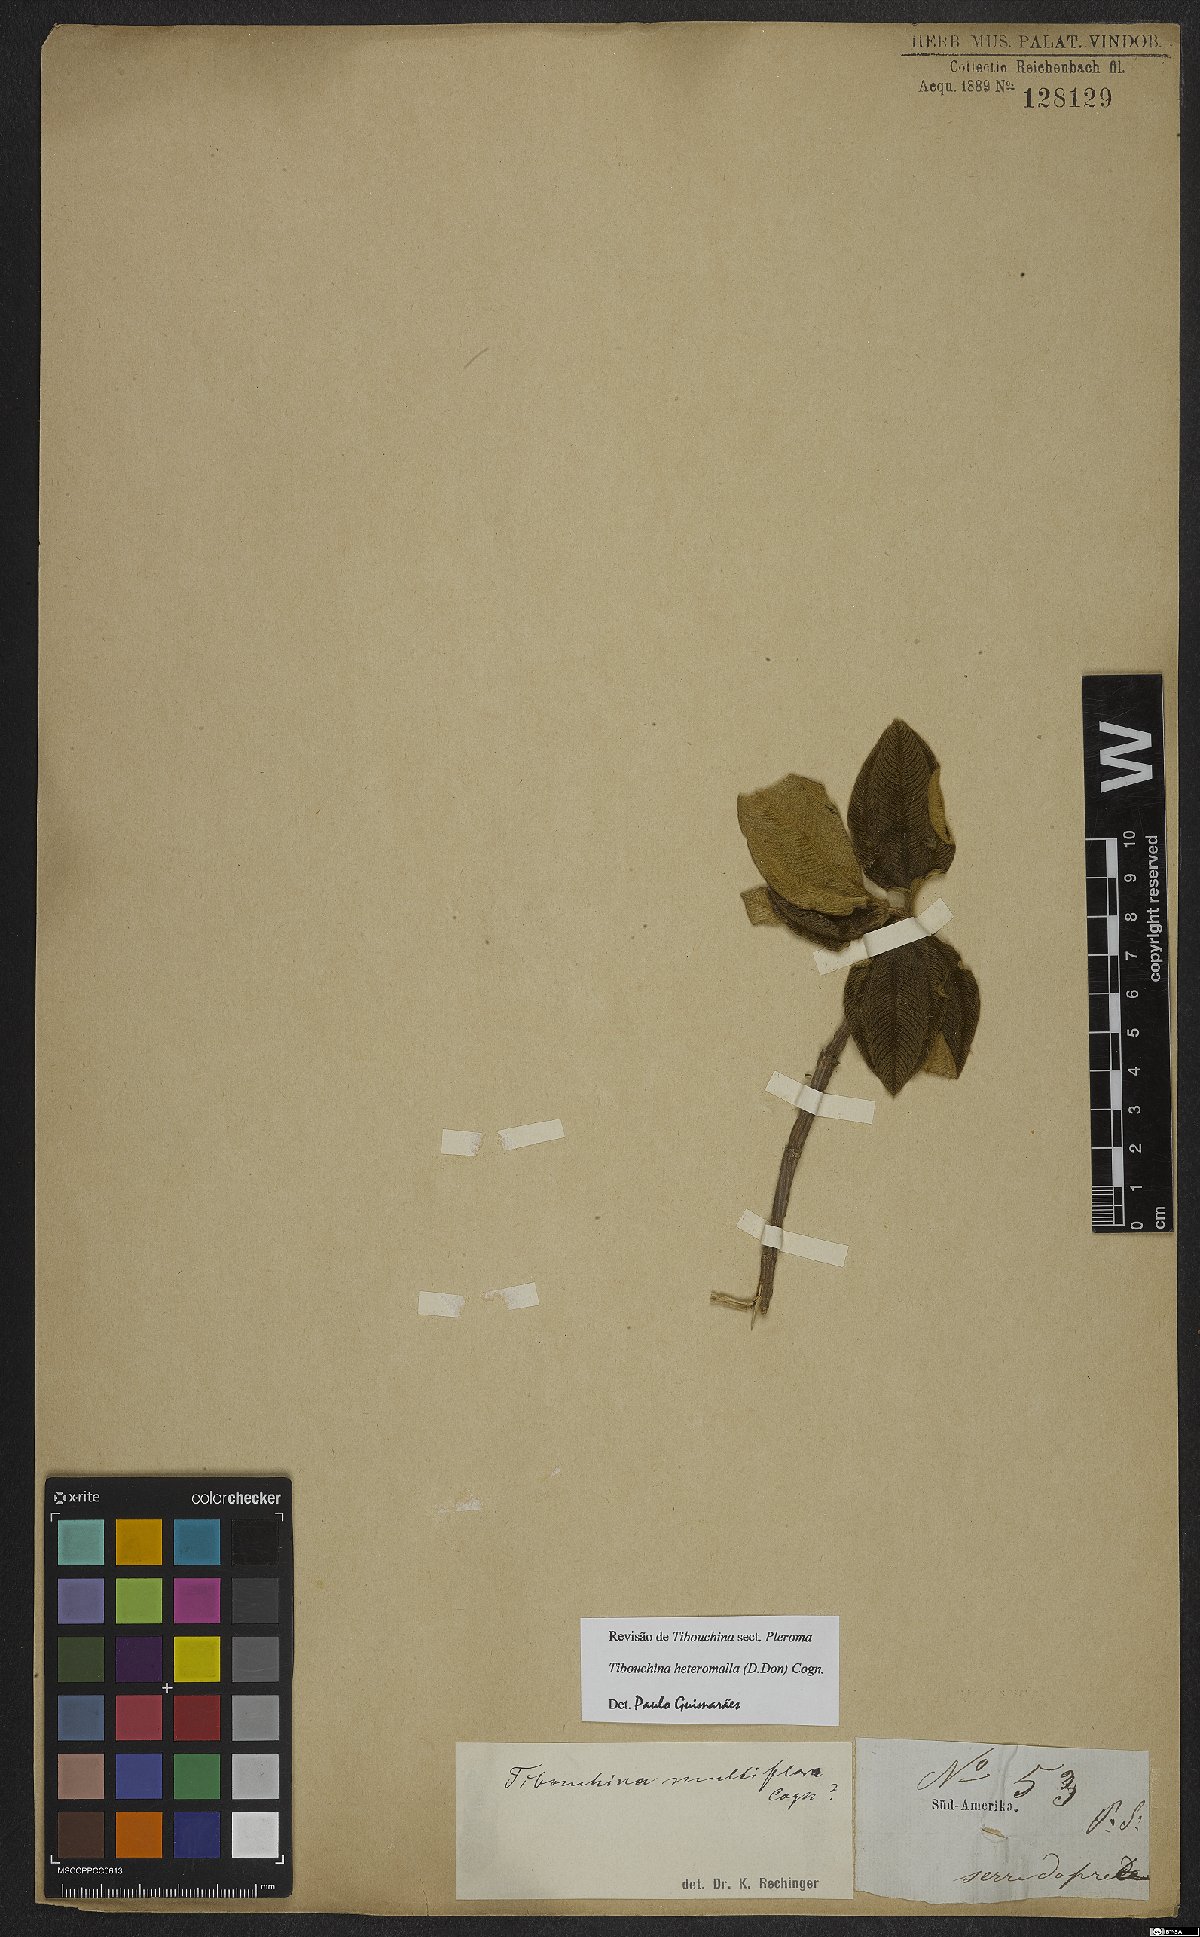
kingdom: Plantae
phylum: Tracheophyta
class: Magnoliopsida
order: Myrtales
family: Melastomataceae
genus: Pleroma
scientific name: Pleroma heteromallum
